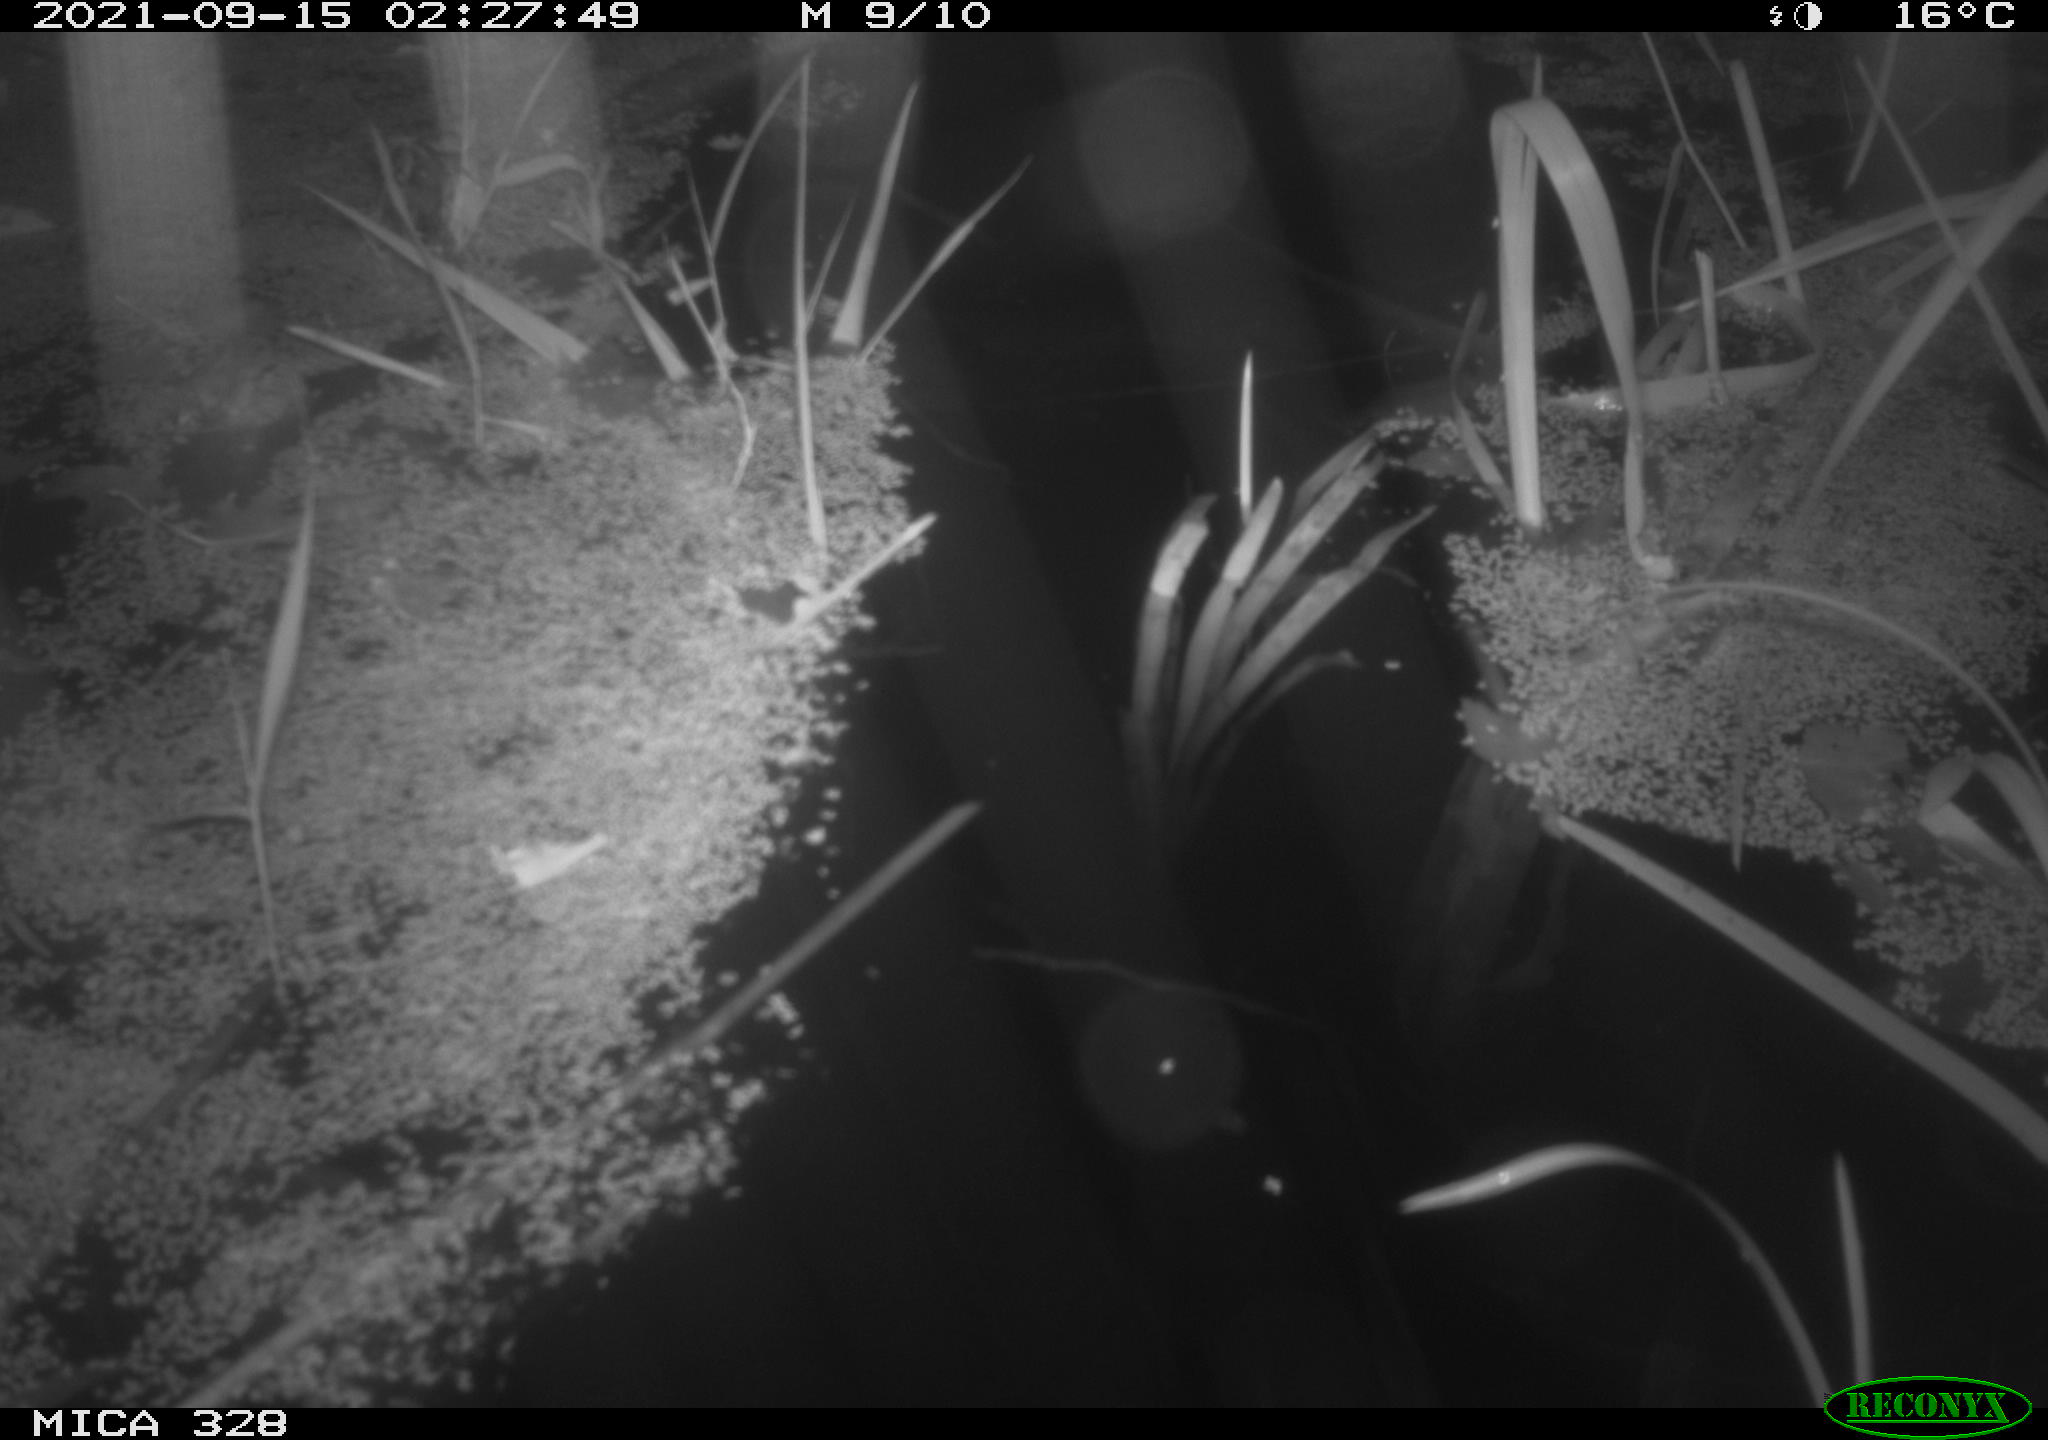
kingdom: Animalia
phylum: Chordata
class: Mammalia
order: Rodentia
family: Cricetidae
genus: Ondatra
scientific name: Ondatra zibethicus
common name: Muskrat
